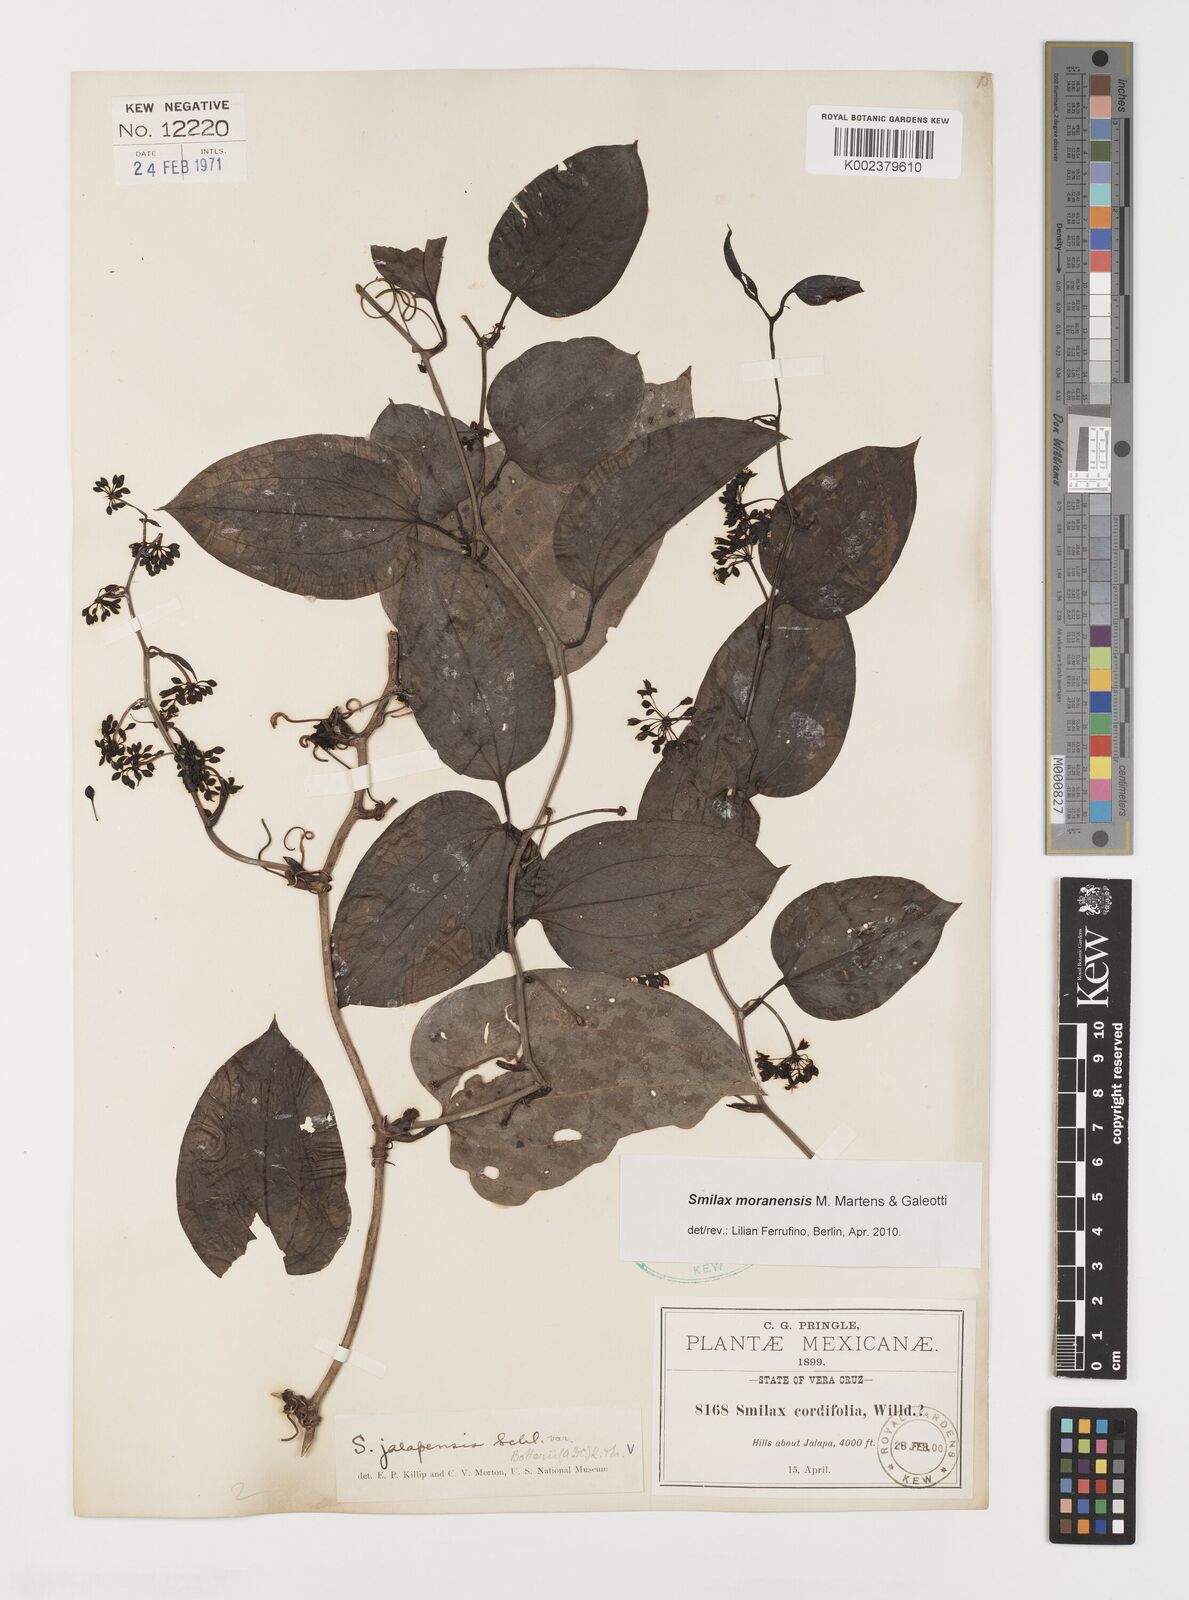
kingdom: Plantae
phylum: Tracheophyta
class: Liliopsida
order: Liliales
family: Smilacaceae
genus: Smilax
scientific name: Smilax moranensis
